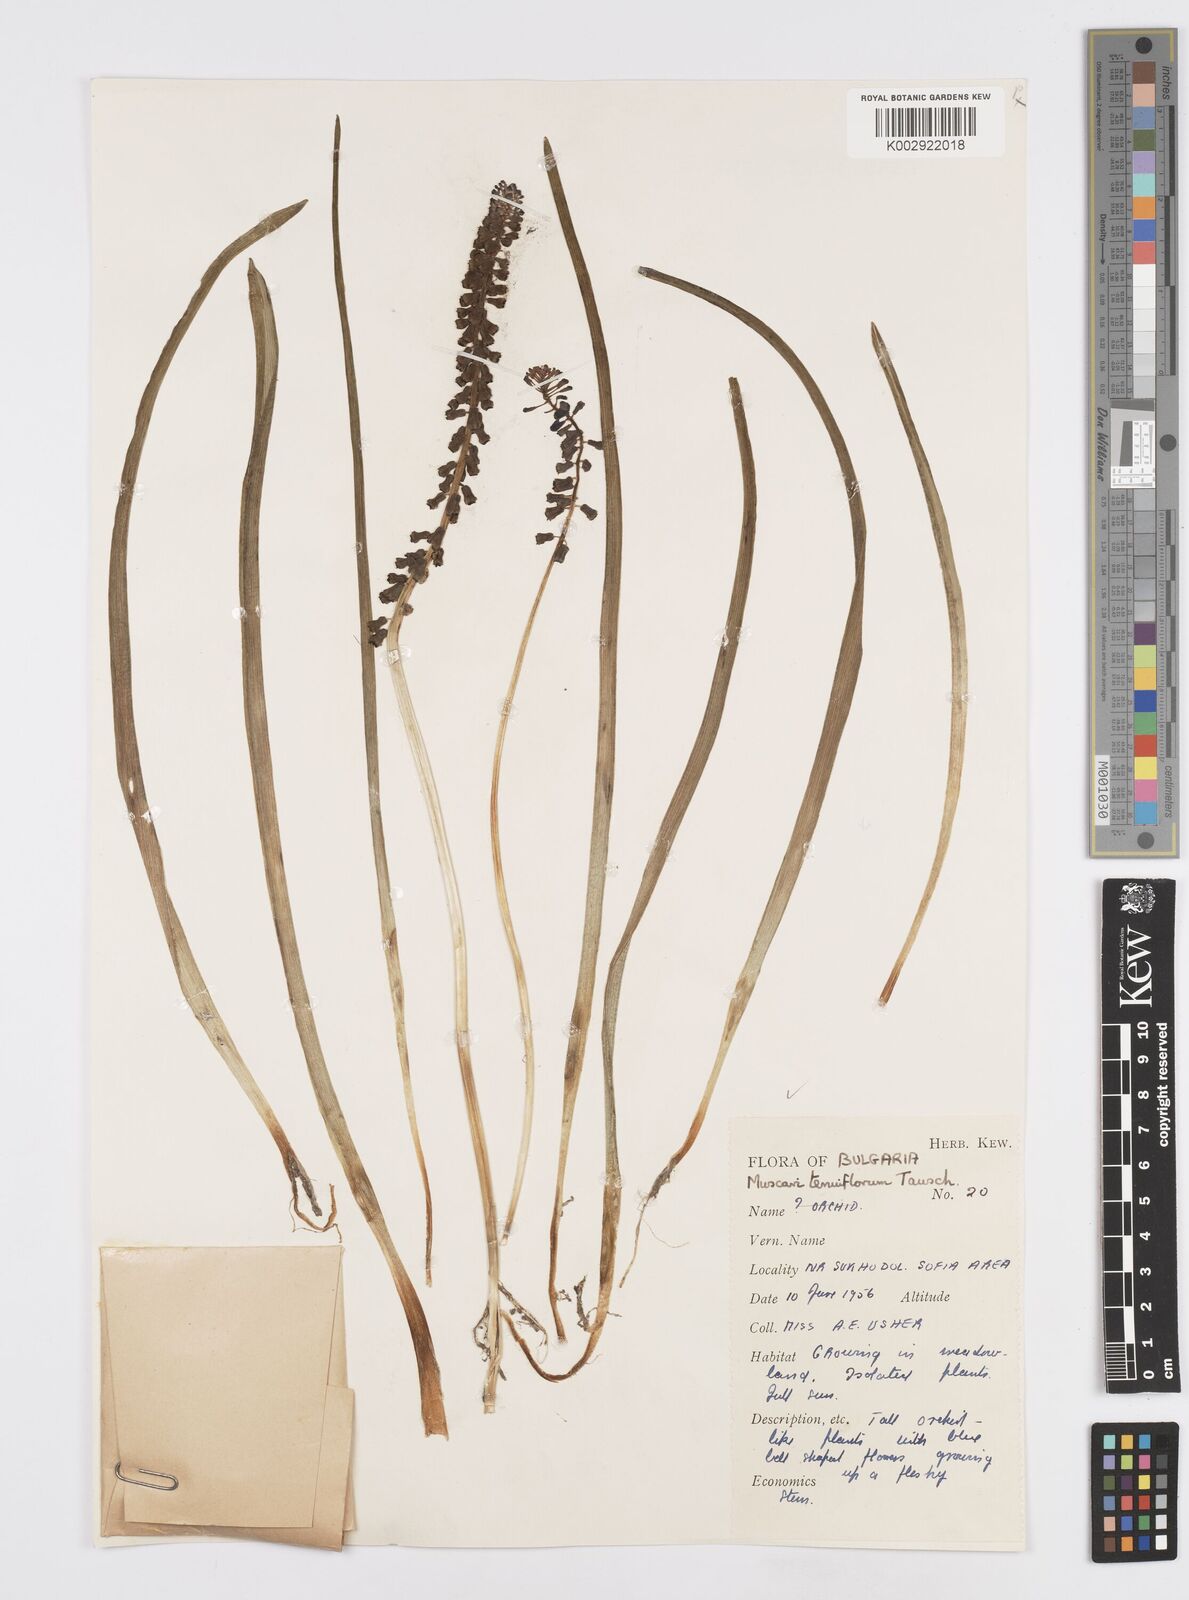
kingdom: Plantae
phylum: Tracheophyta
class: Liliopsida
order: Asparagales
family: Asparagaceae
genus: Muscari
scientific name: Muscari tenuiflorum
